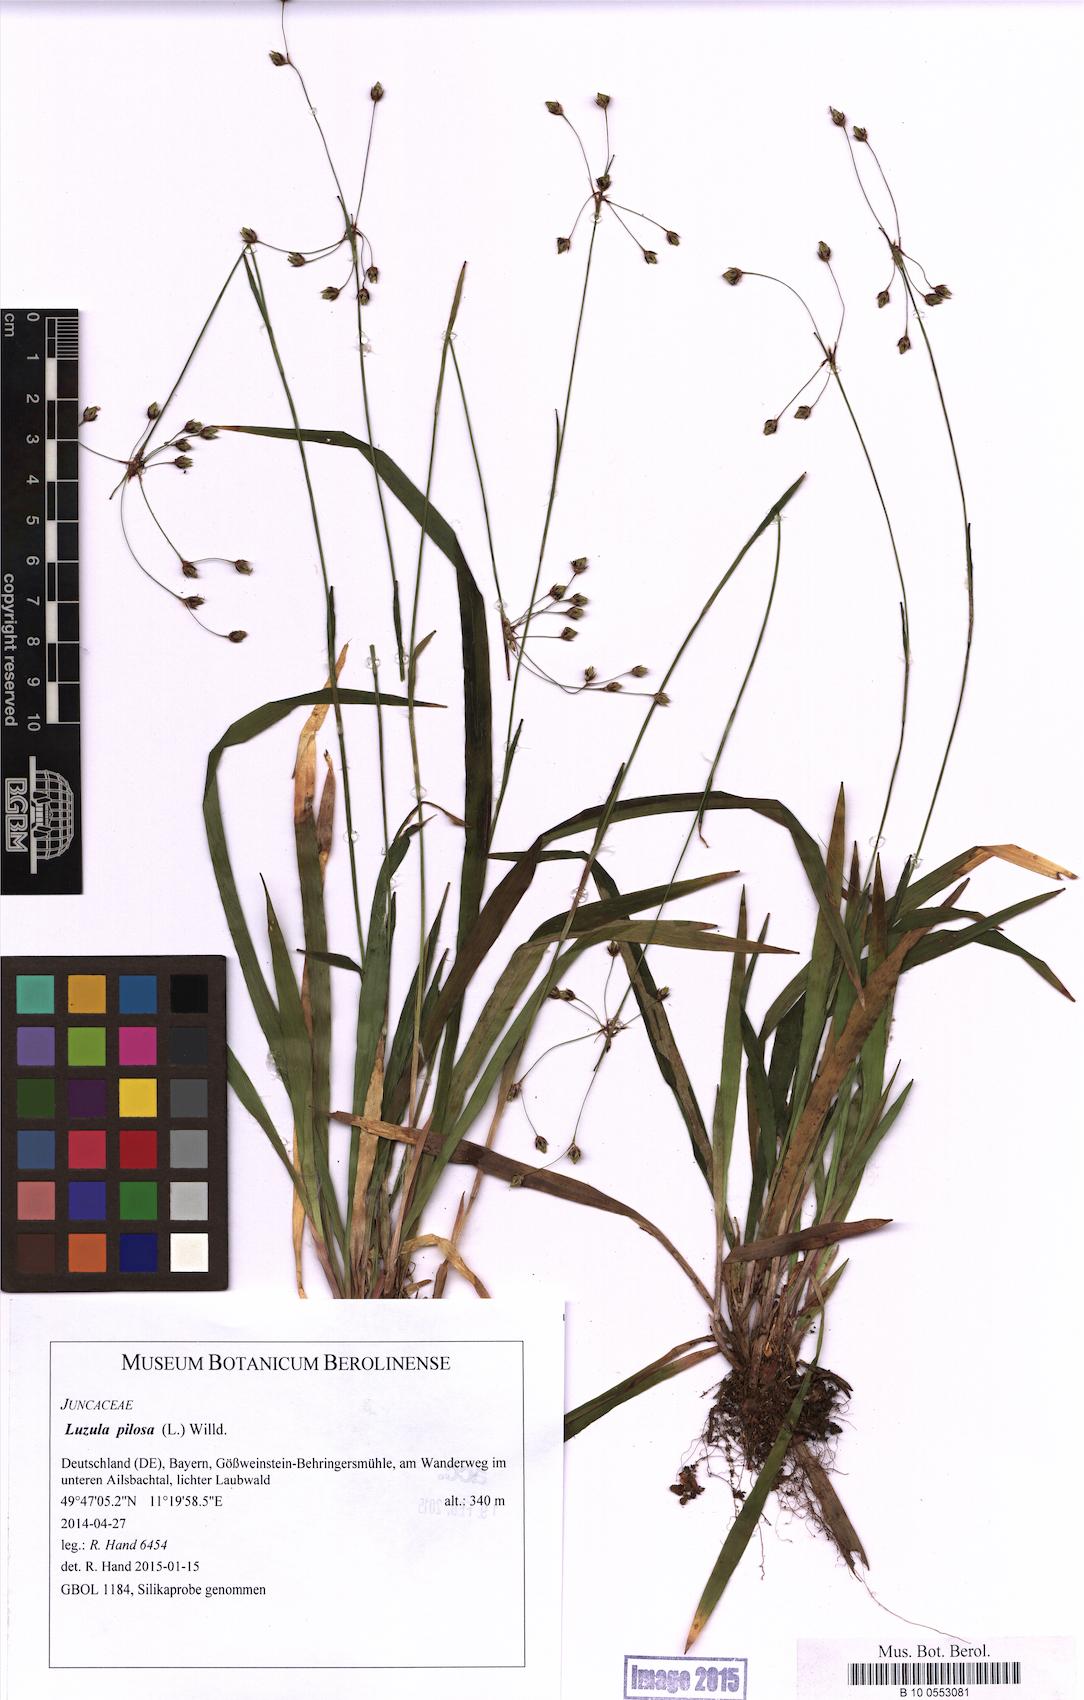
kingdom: Plantae
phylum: Tracheophyta
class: Liliopsida
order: Poales
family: Juncaceae
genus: Luzula
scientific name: Luzula pilosa
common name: Hairy wood-rush
